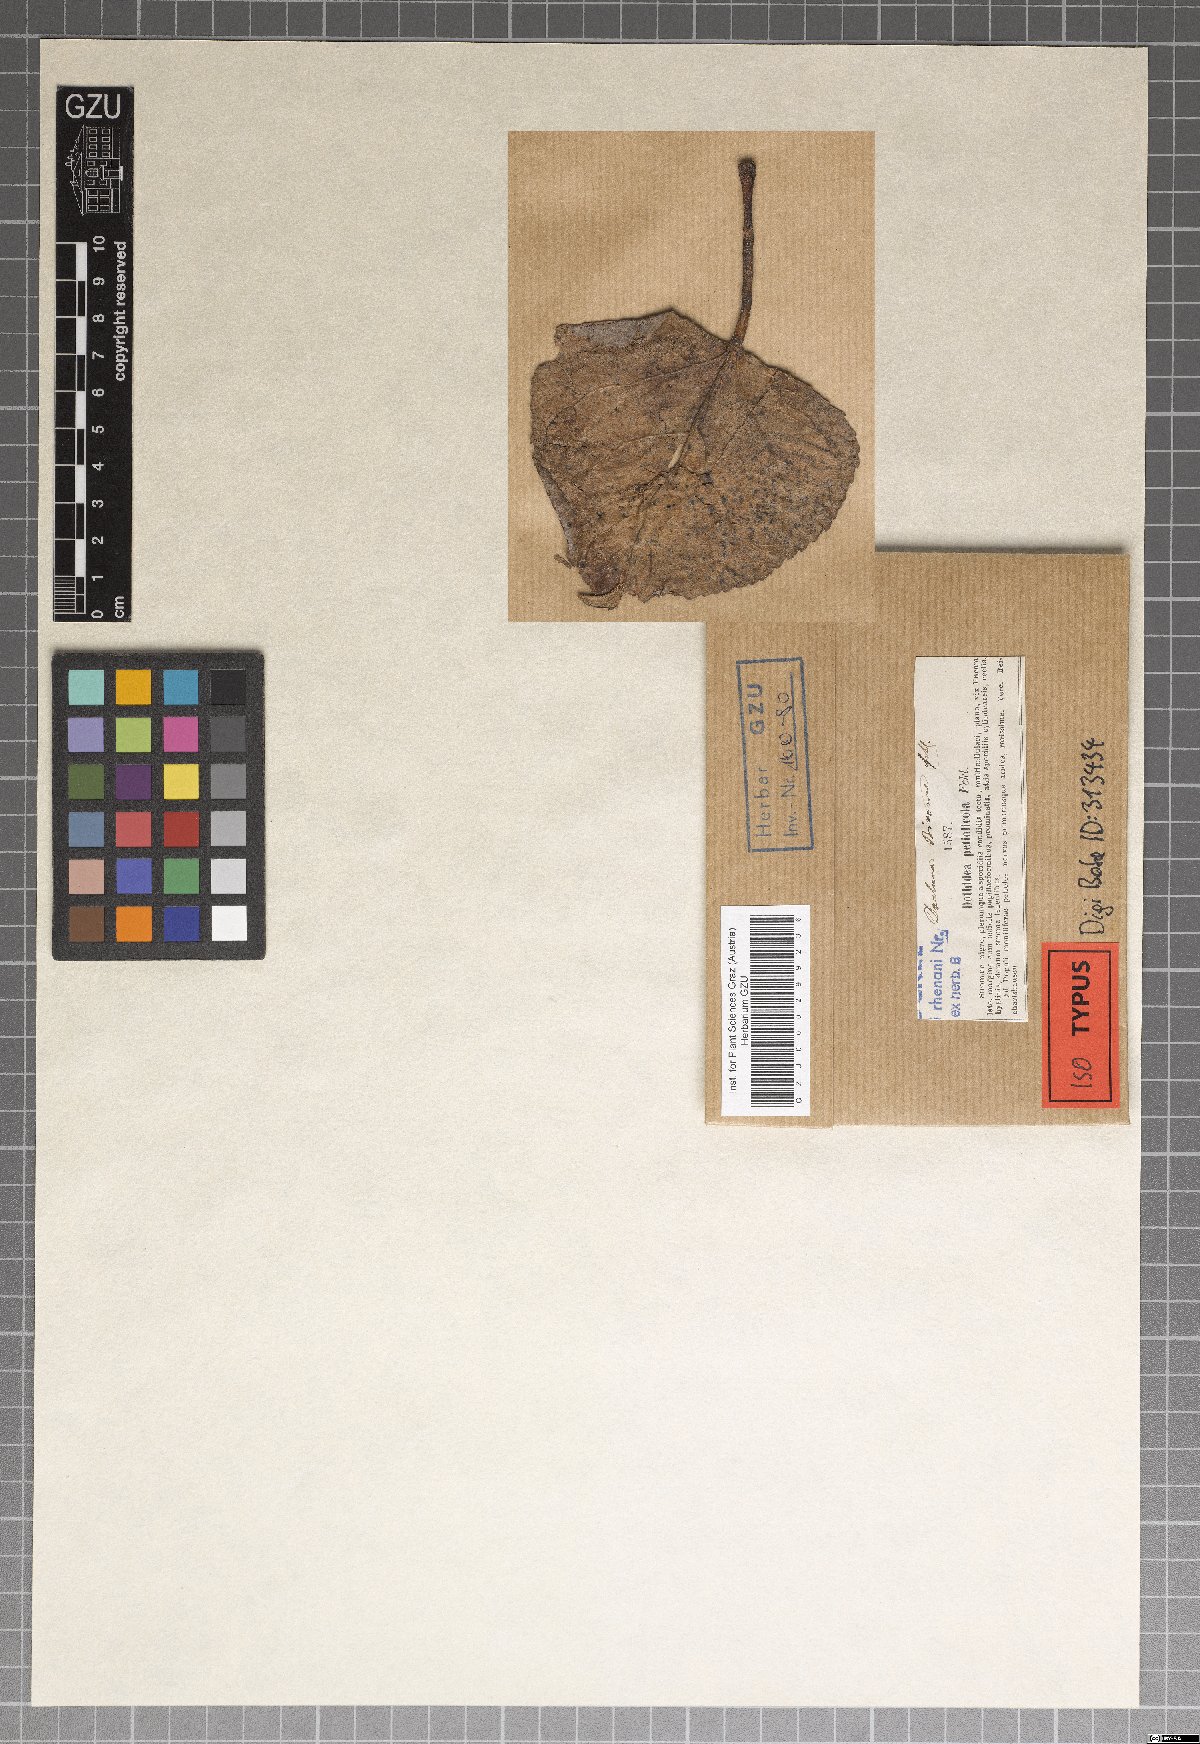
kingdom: Fungi
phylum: Ascomycota
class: Leotiomycetes
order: Phacidiales
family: Phacidiaceae
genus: Ceuthospora
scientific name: Ceuthospora bivonae
